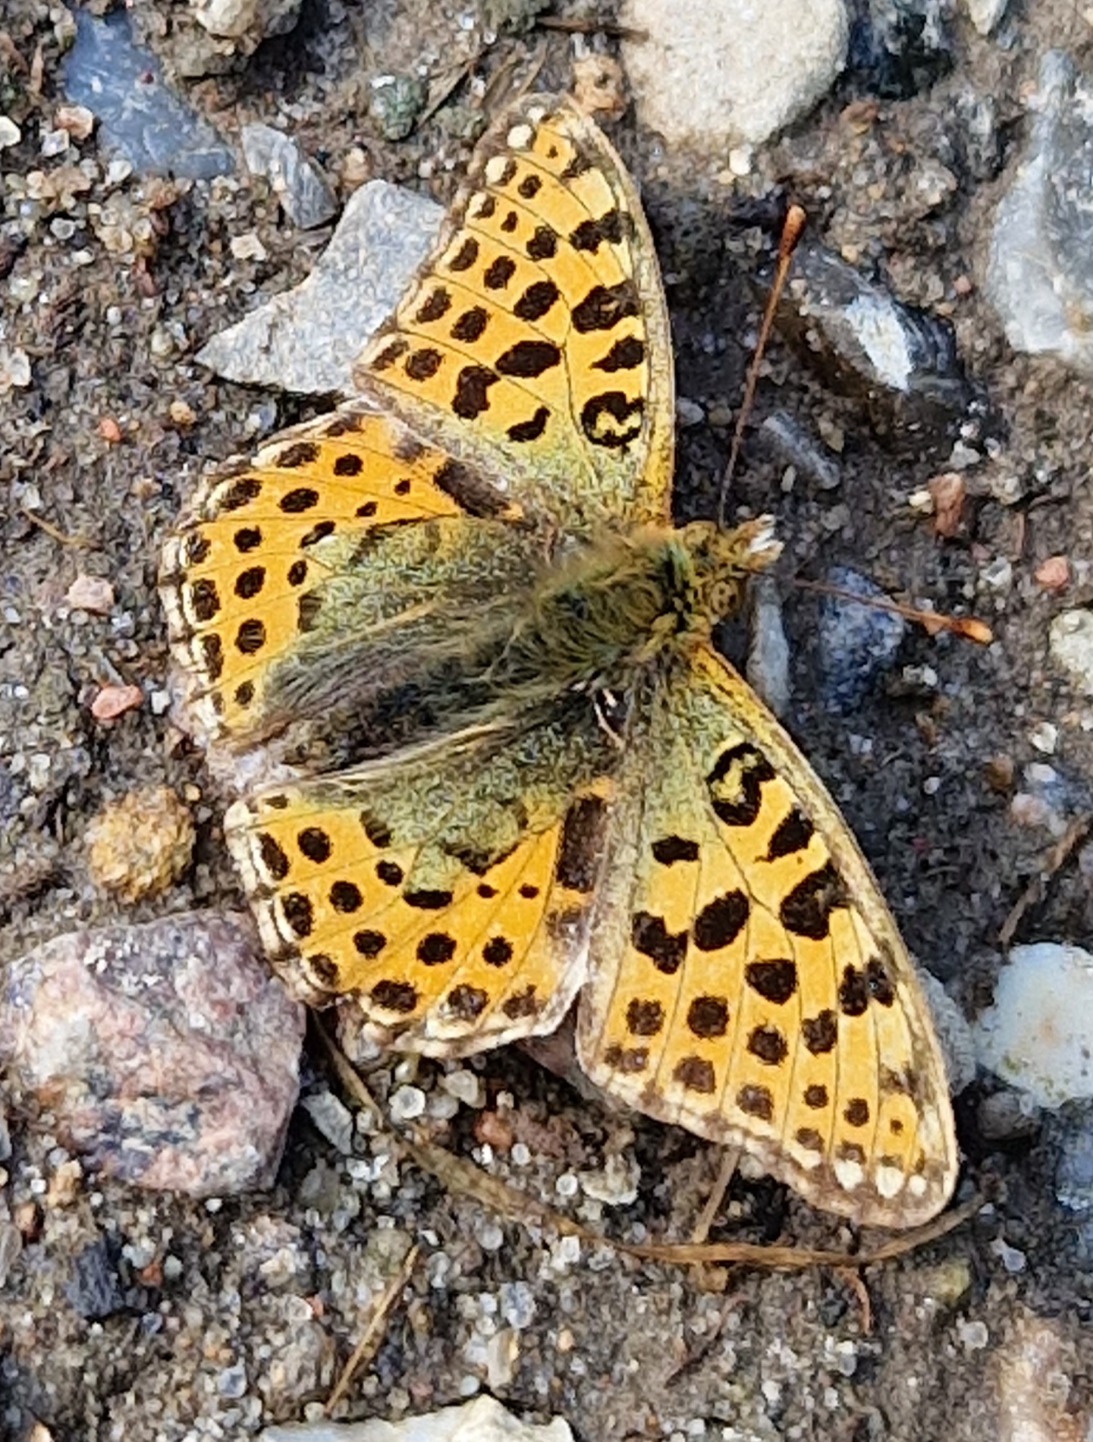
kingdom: Animalia
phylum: Arthropoda
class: Insecta
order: Lepidoptera
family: Nymphalidae
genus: Issoria
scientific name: Issoria lathonia
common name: Storplettet perlemorsommerfugl
